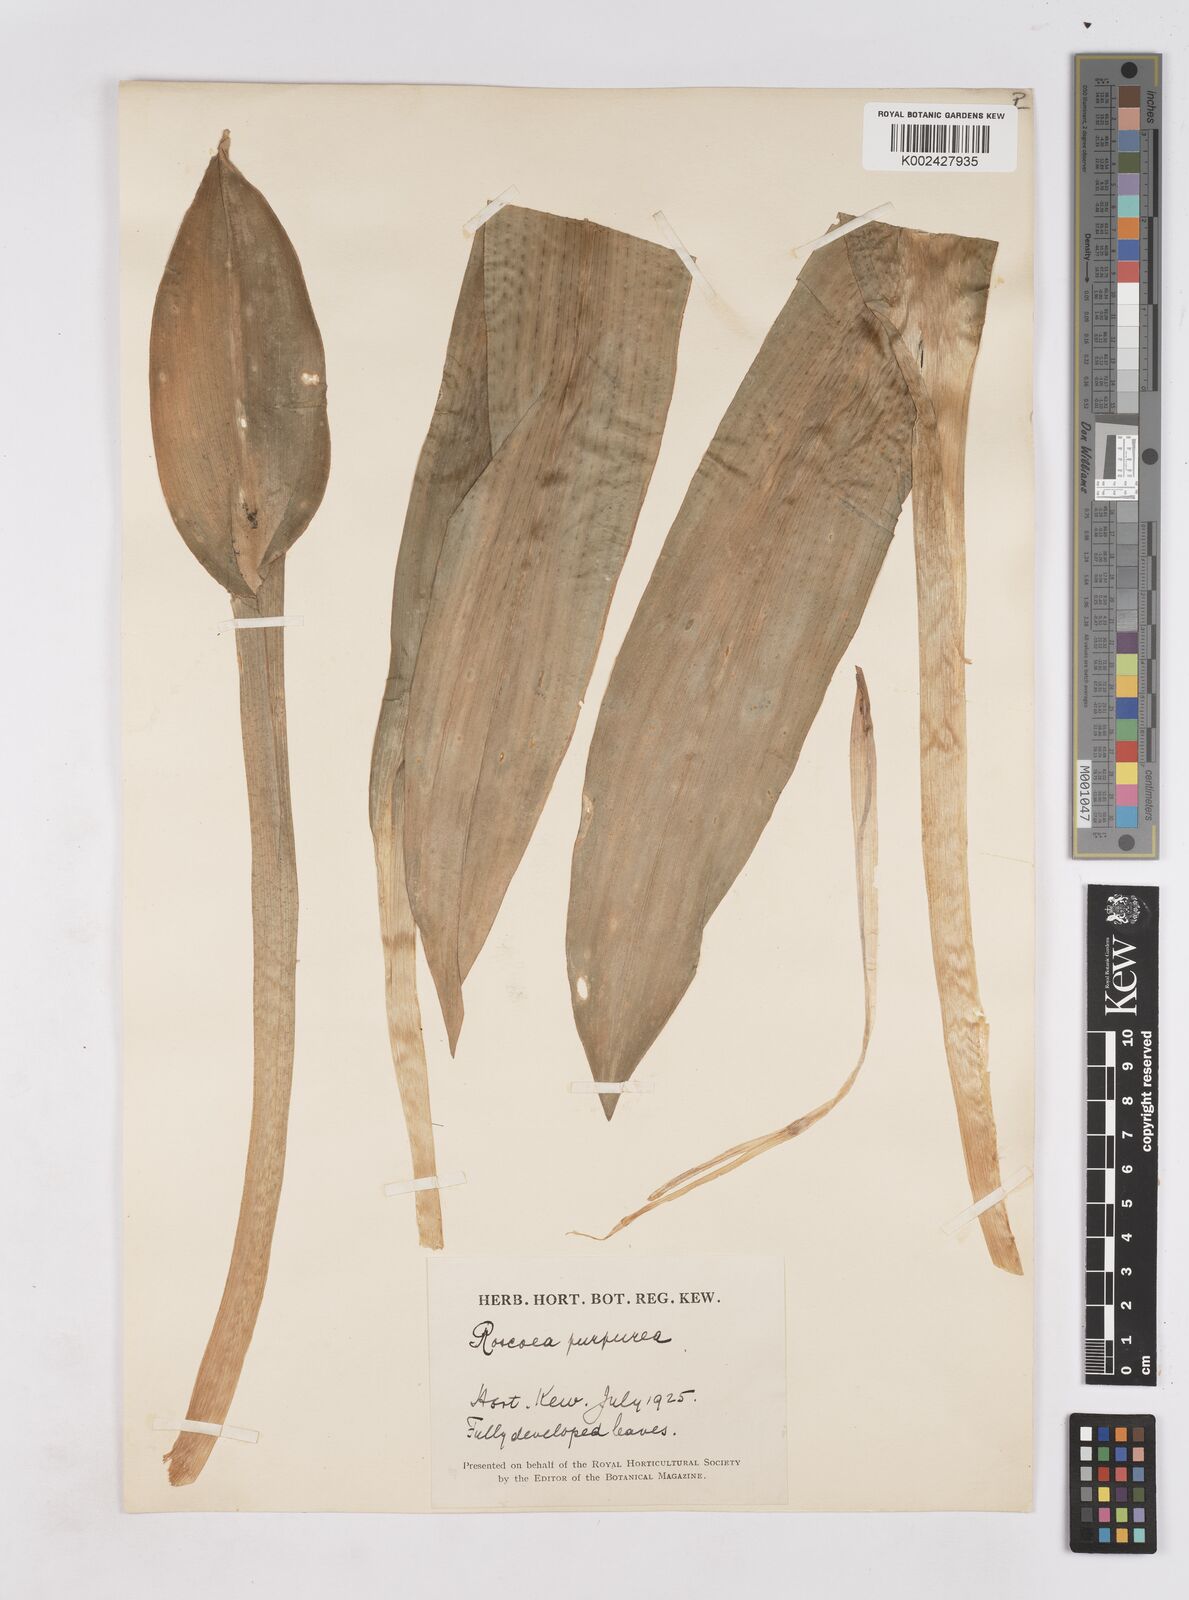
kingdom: Plantae
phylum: Tracheophyta
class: Liliopsida
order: Zingiberales
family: Zingiberaceae
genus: Roscoea
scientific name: Roscoea humeana
